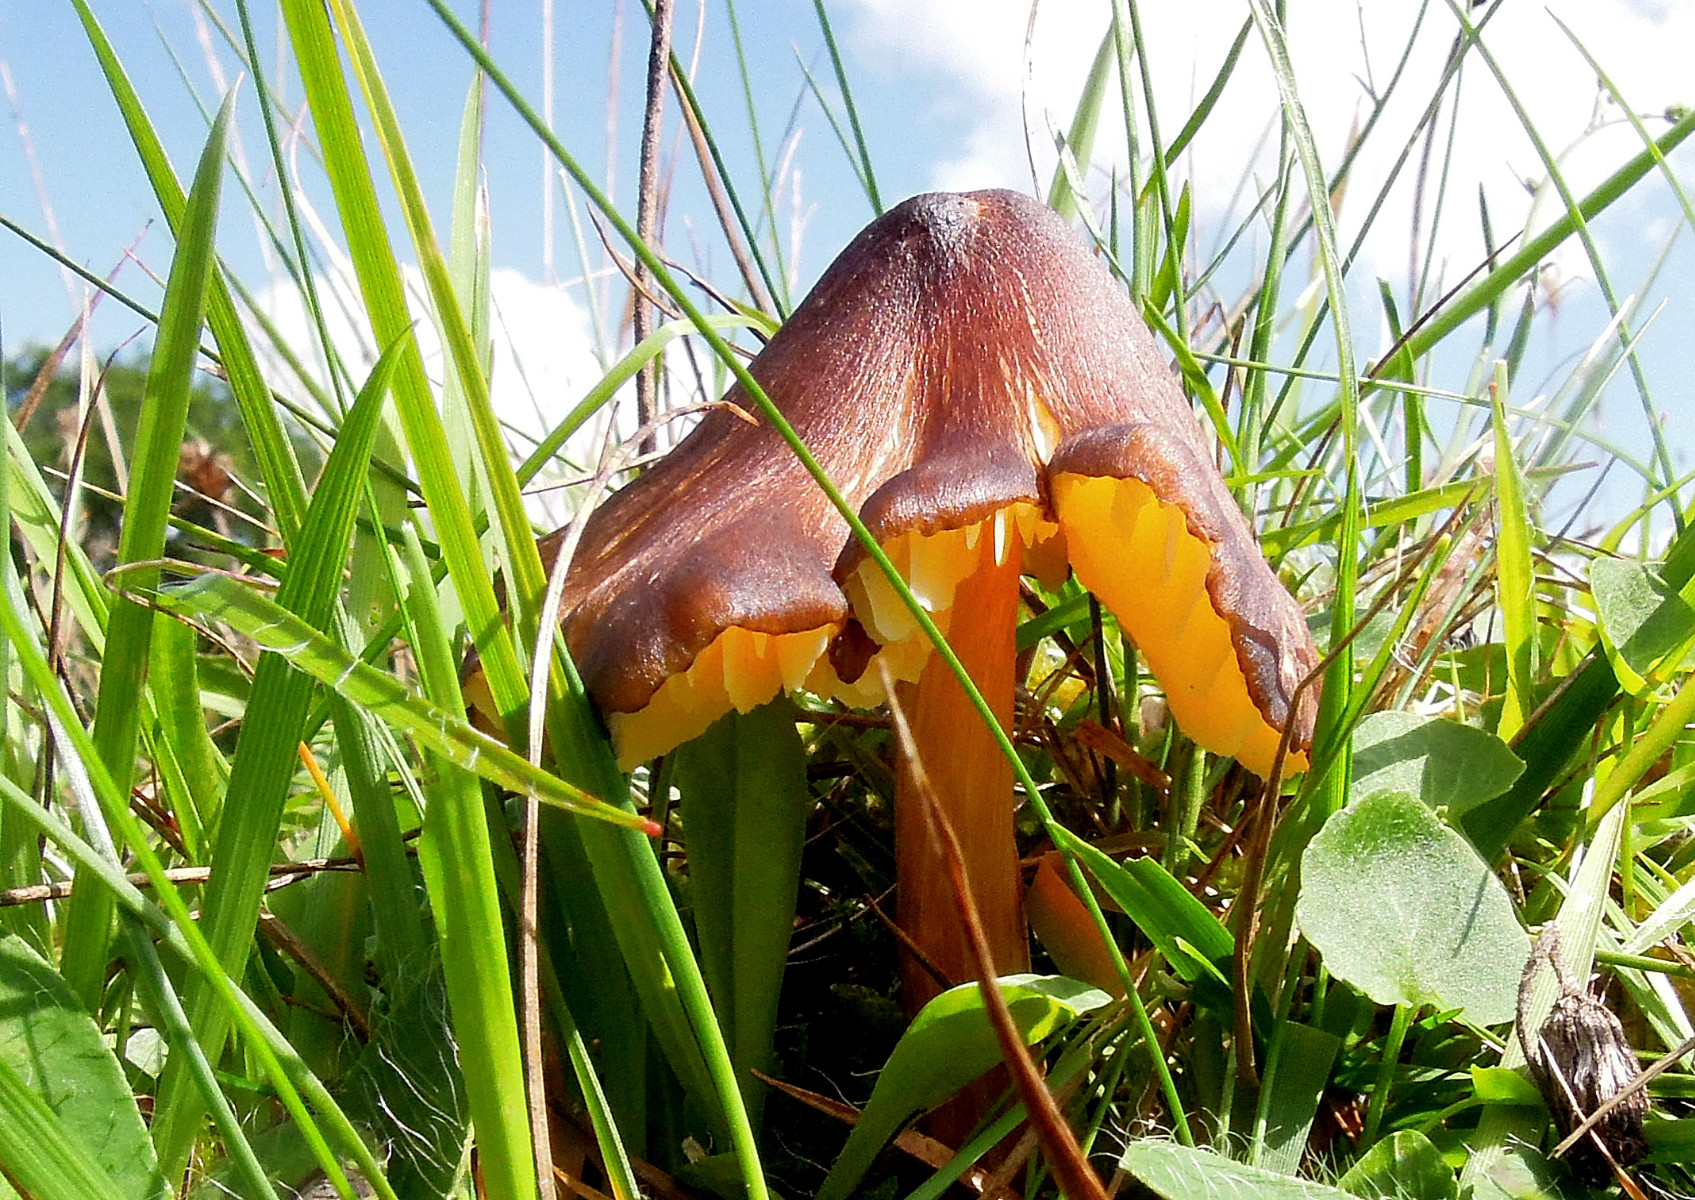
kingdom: Fungi
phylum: Basidiomycota
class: Agaricomycetes
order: Agaricales
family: Hygrophoraceae
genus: Hygrocybe
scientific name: Hygrocybe spadicea
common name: daddelbrun vokshat
